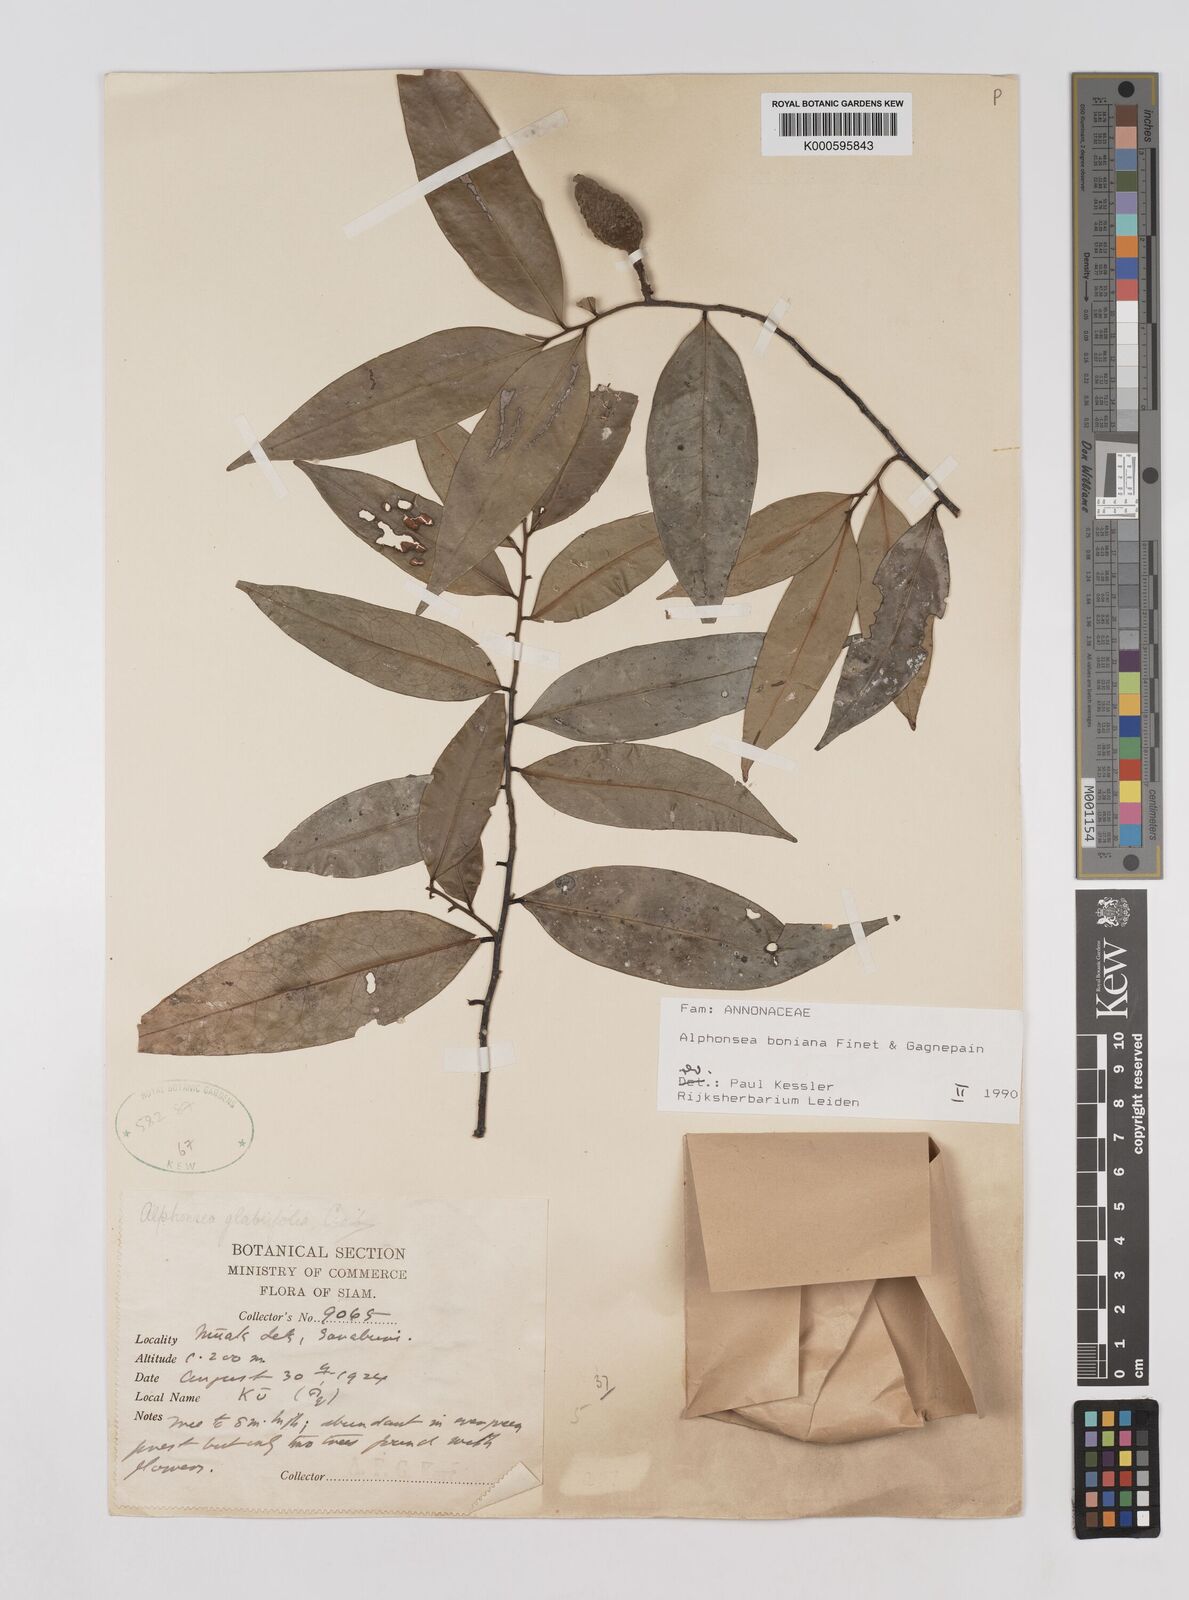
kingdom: Plantae
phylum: Tracheophyta
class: Magnoliopsida
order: Magnoliales
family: Annonaceae
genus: Alphonsea
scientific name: Alphonsea boniana
